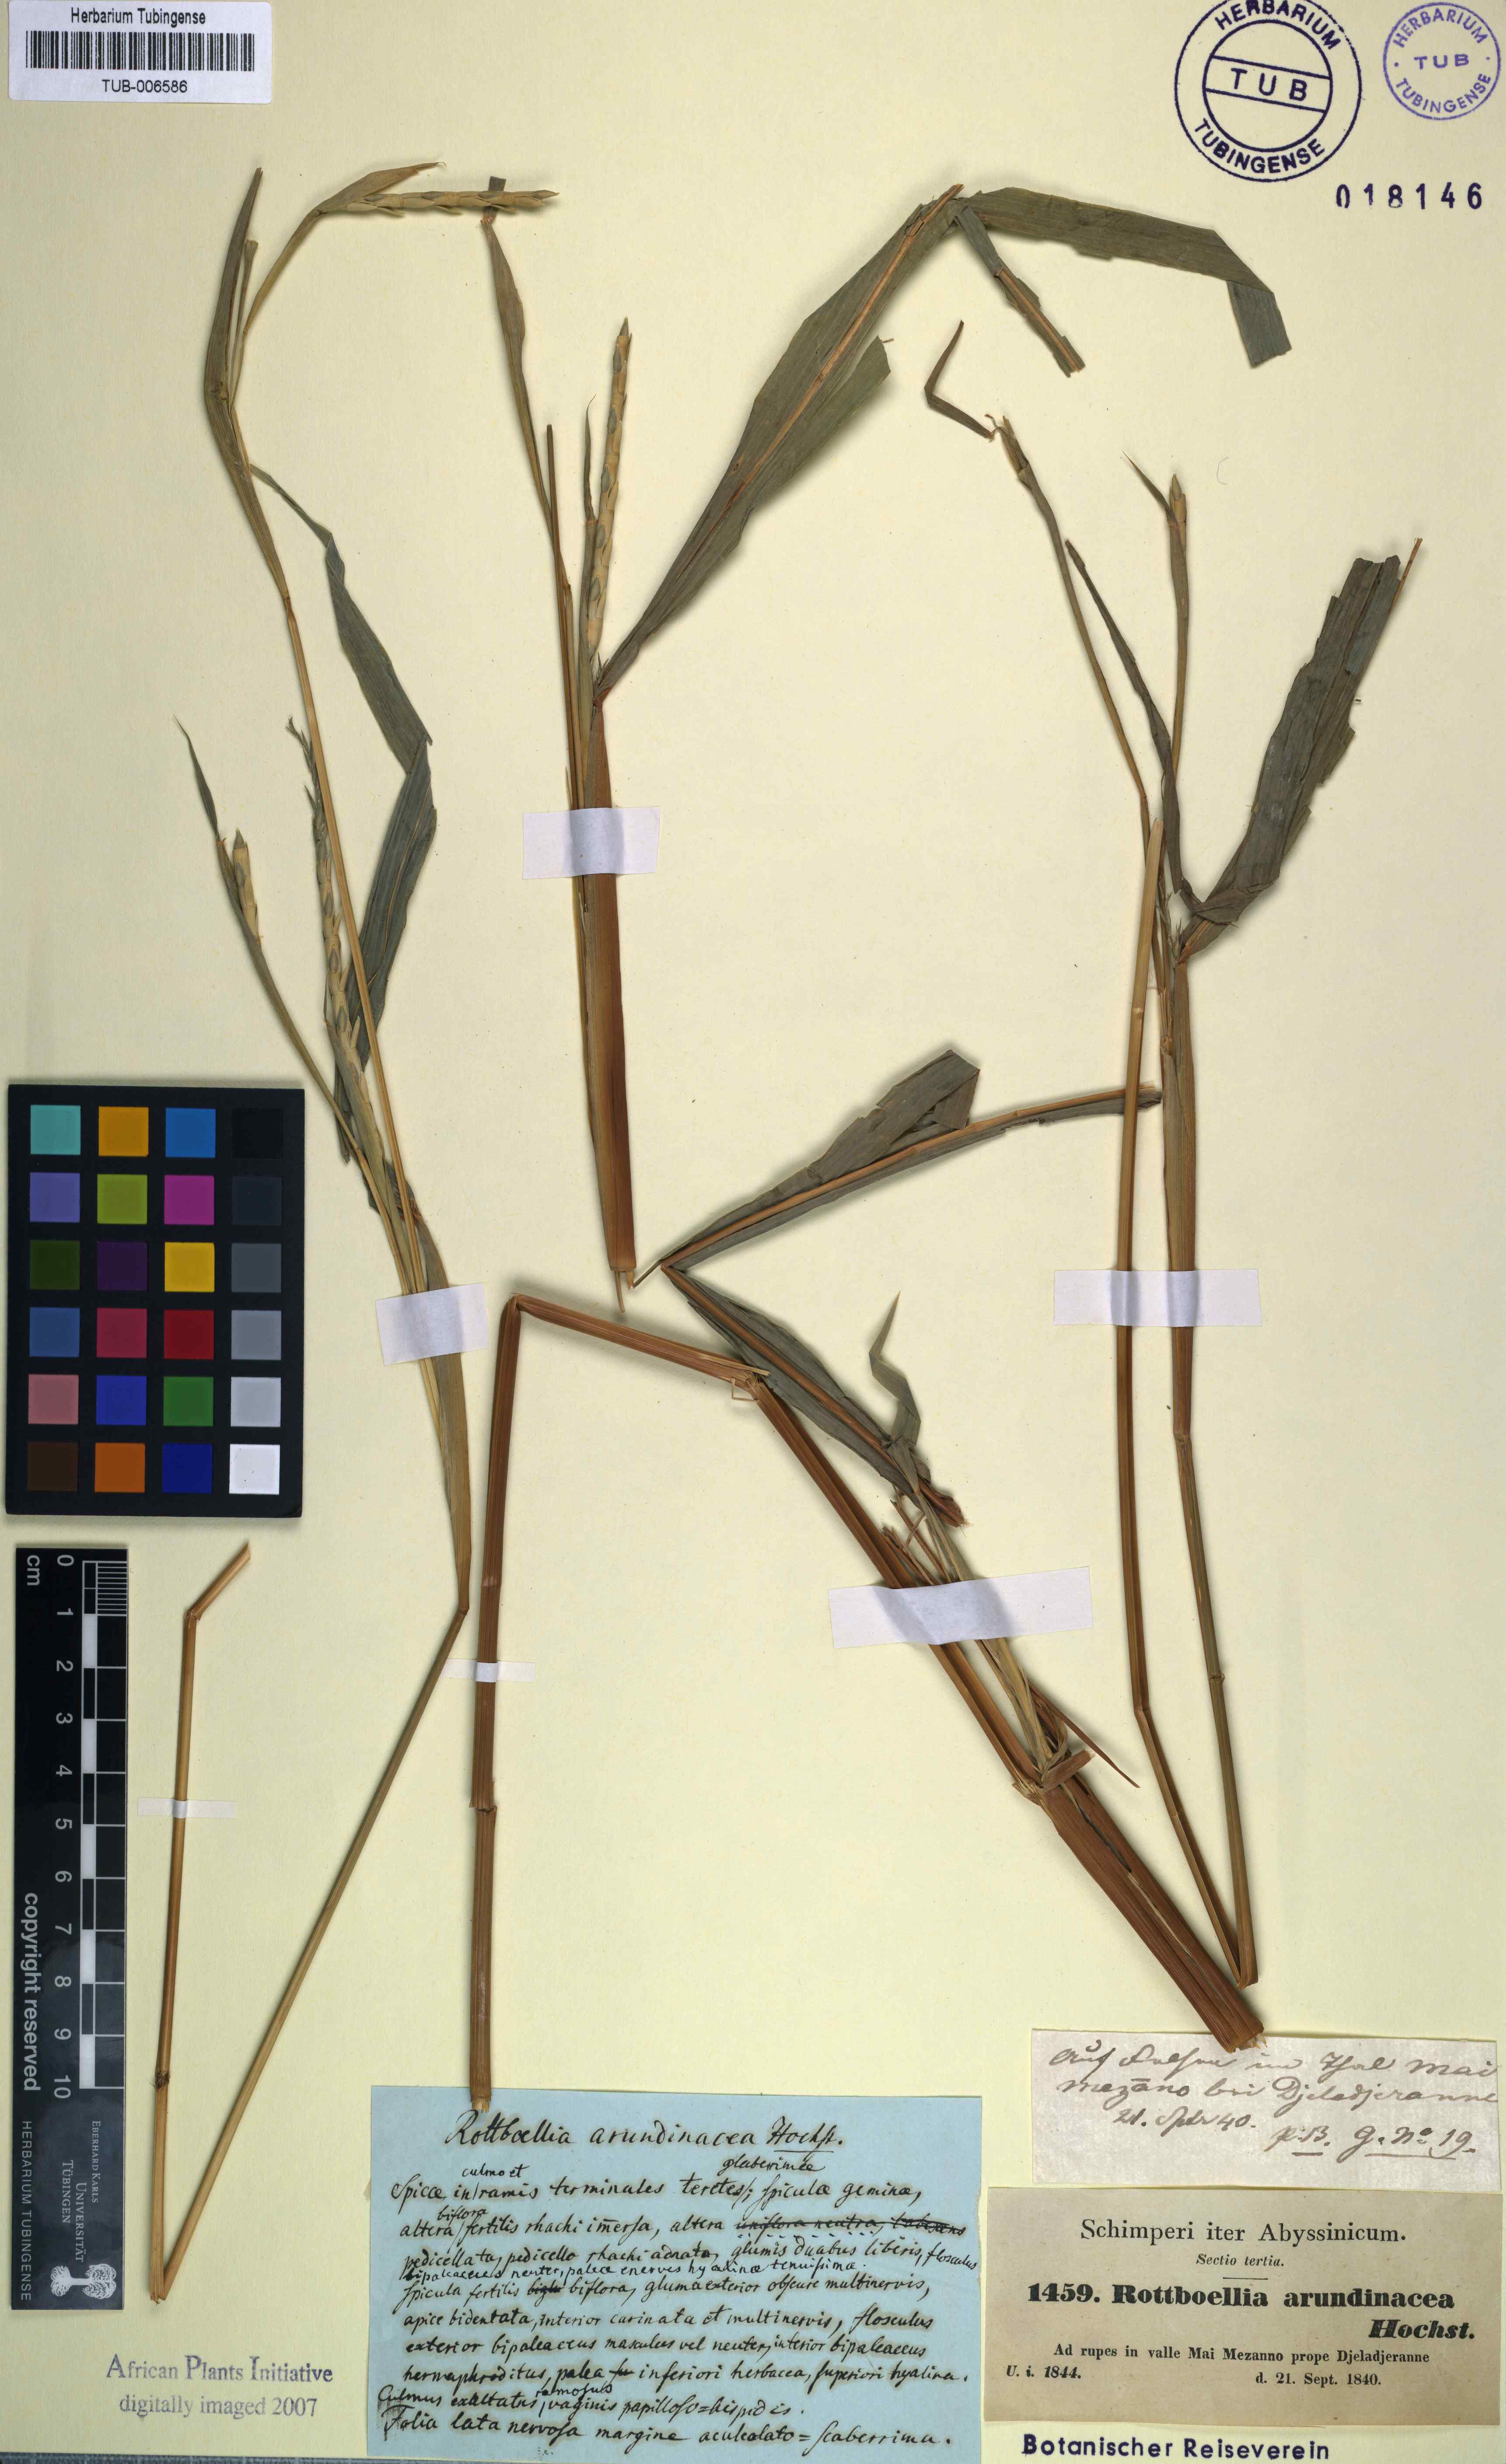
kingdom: Plantae
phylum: Tracheophyta
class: Liliopsida
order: Poales
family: Poaceae
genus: Rottboellia
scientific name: Rottboellia cochinchinensis
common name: Itchgrass
